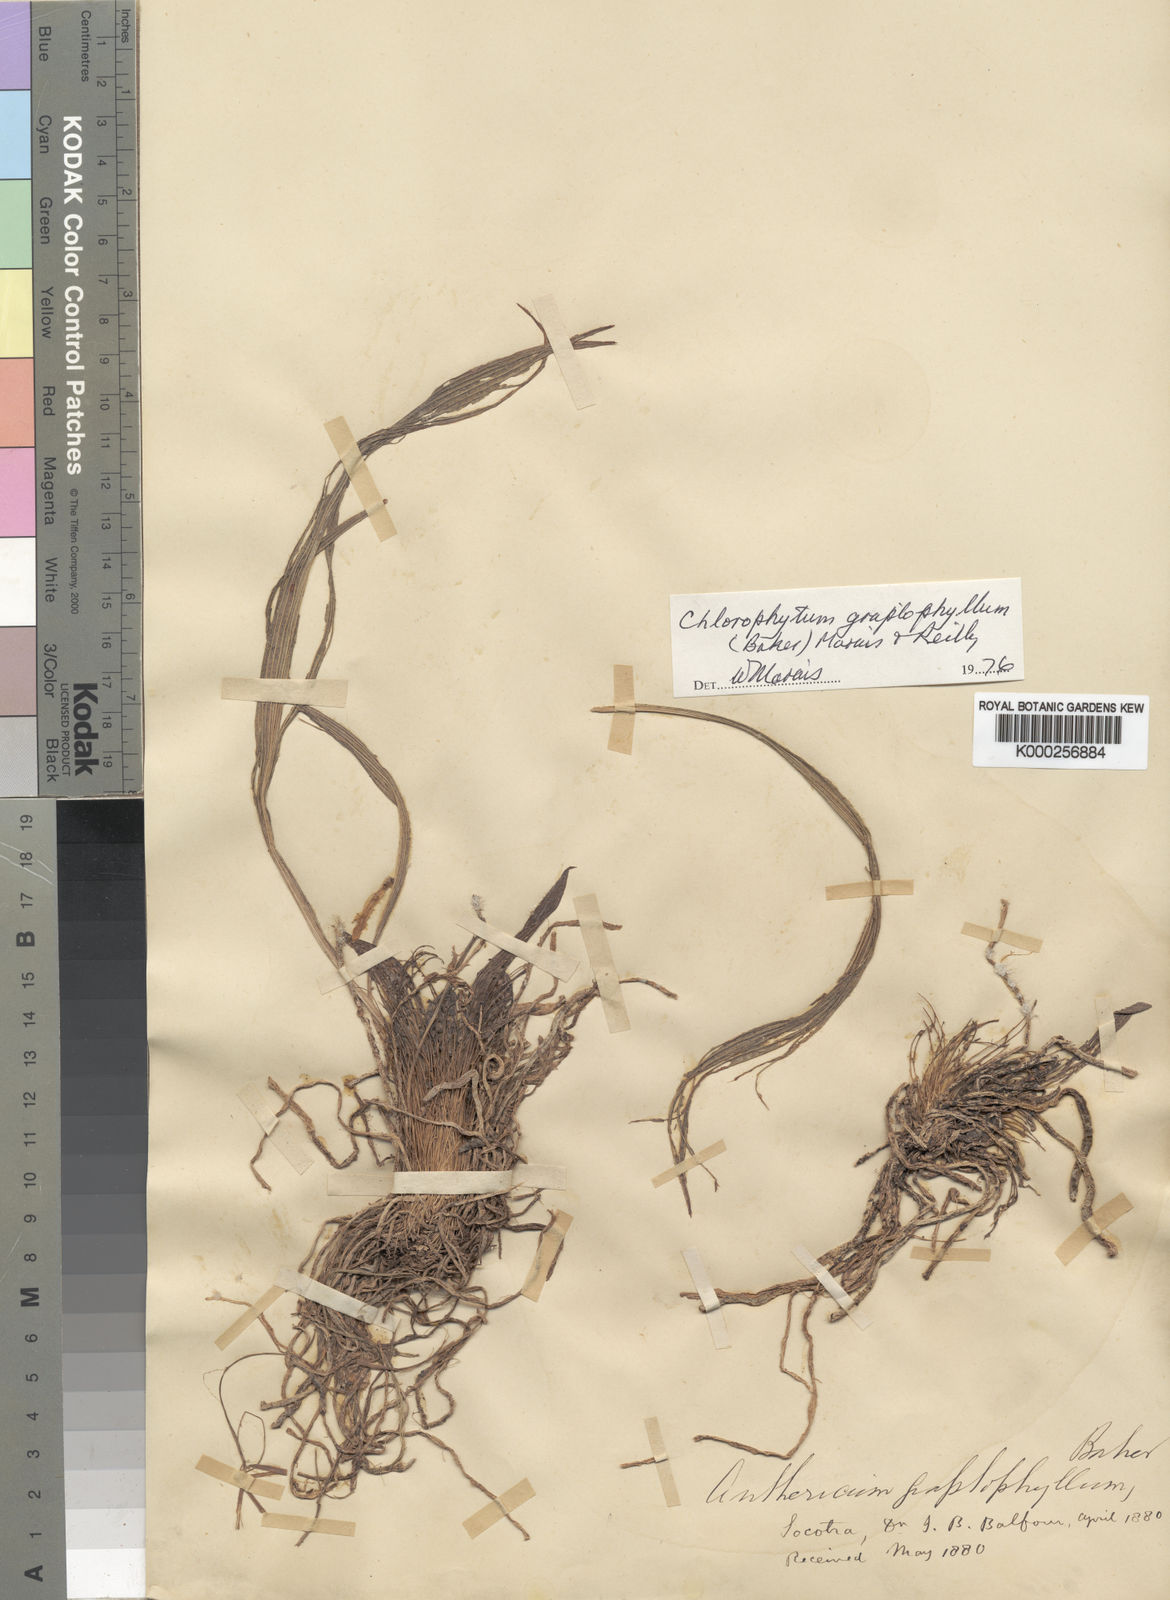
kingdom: Plantae
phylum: Tracheophyta
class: Liliopsida
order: Asparagales
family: Asparagaceae
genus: Chlorophytum
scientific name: Chlorophytum graptophyllum
